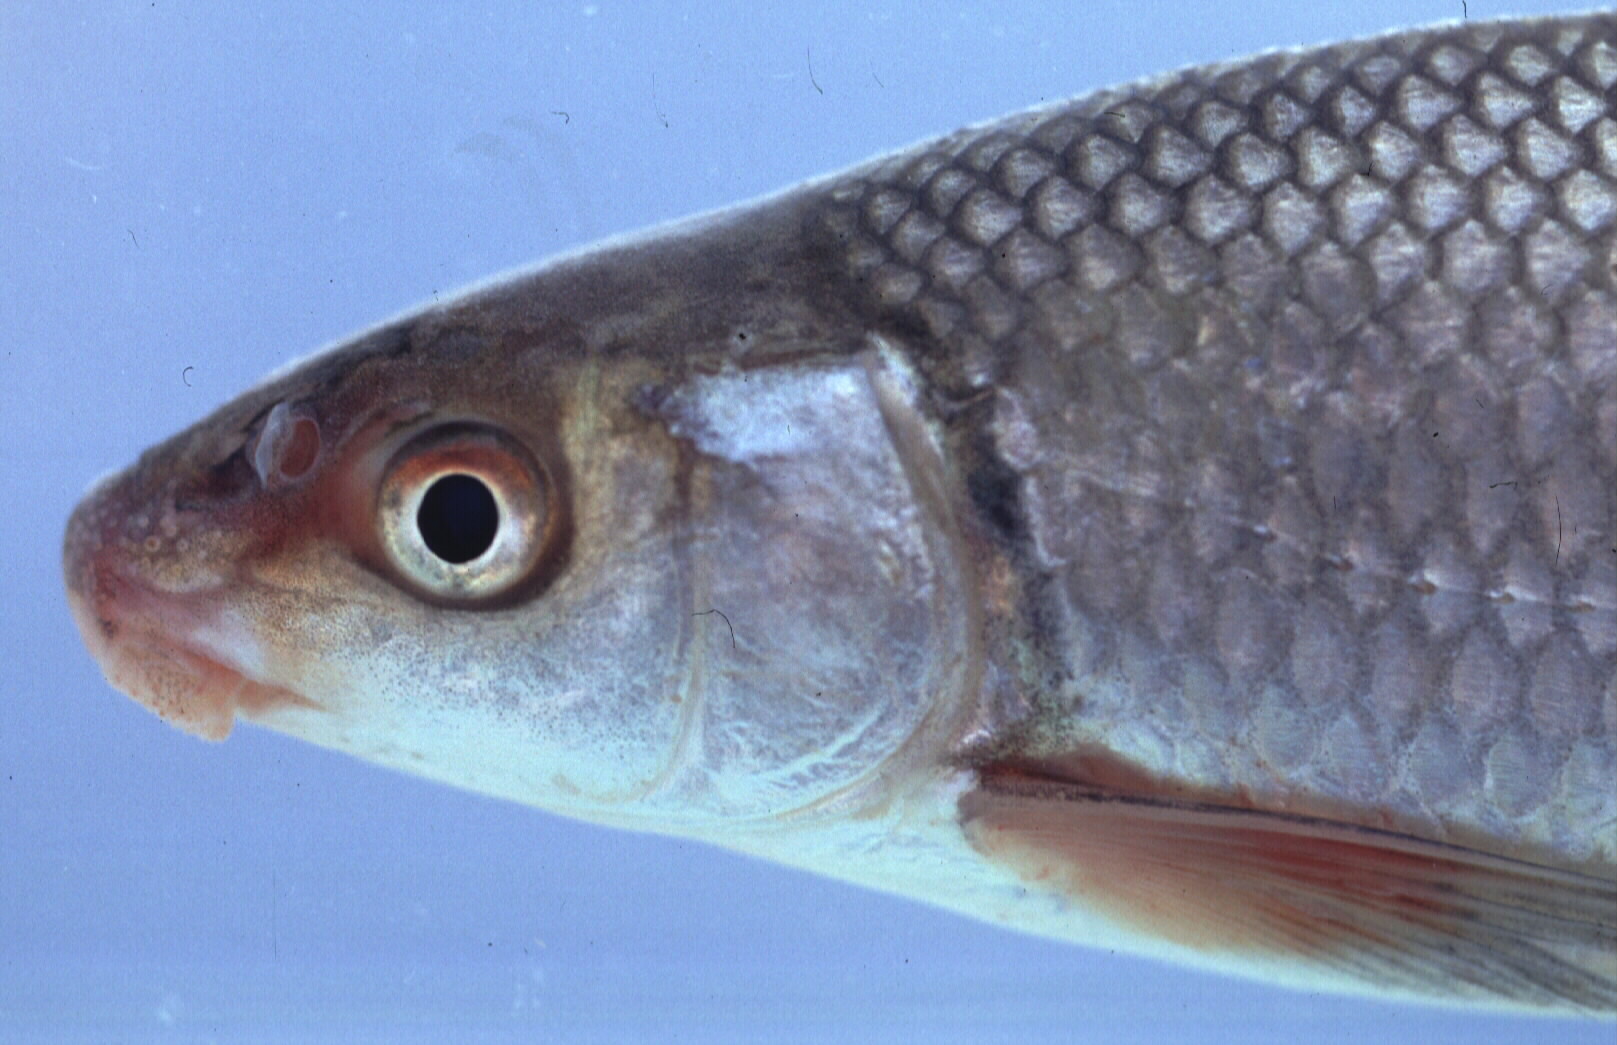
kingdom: Animalia
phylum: Chordata
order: Cypriniformes
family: Cyprinidae
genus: Labeo
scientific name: Labeo ruddi
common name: Silver labeo
